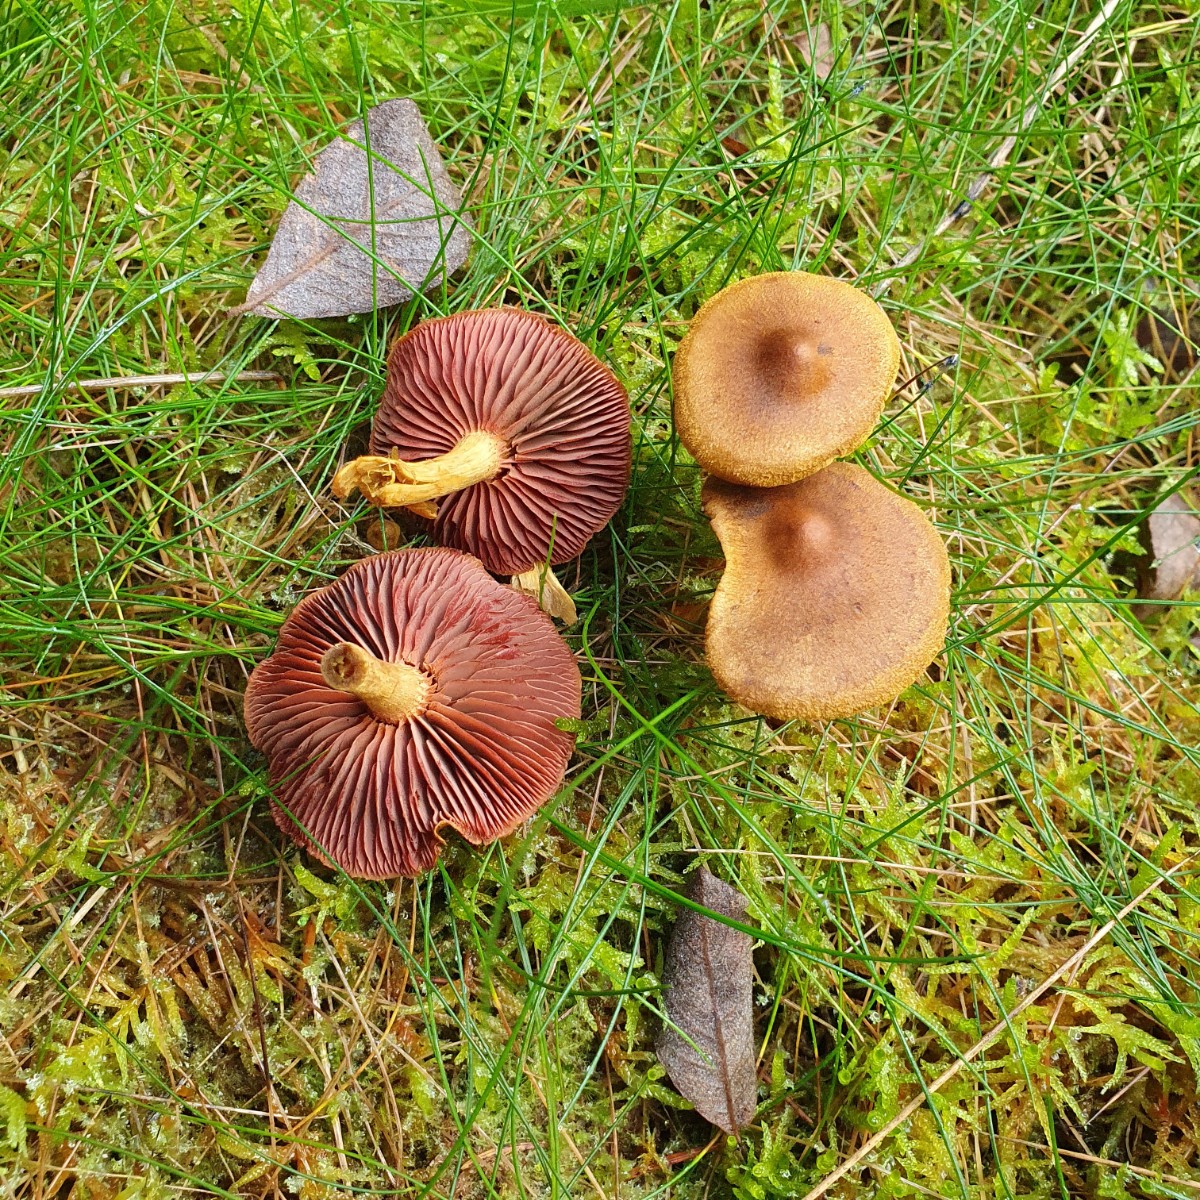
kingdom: Fungi
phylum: Basidiomycota
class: Agaricomycetes
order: Agaricales
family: Cortinariaceae
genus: Cortinarius
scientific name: Cortinarius
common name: cinnoberbladet slørhat
